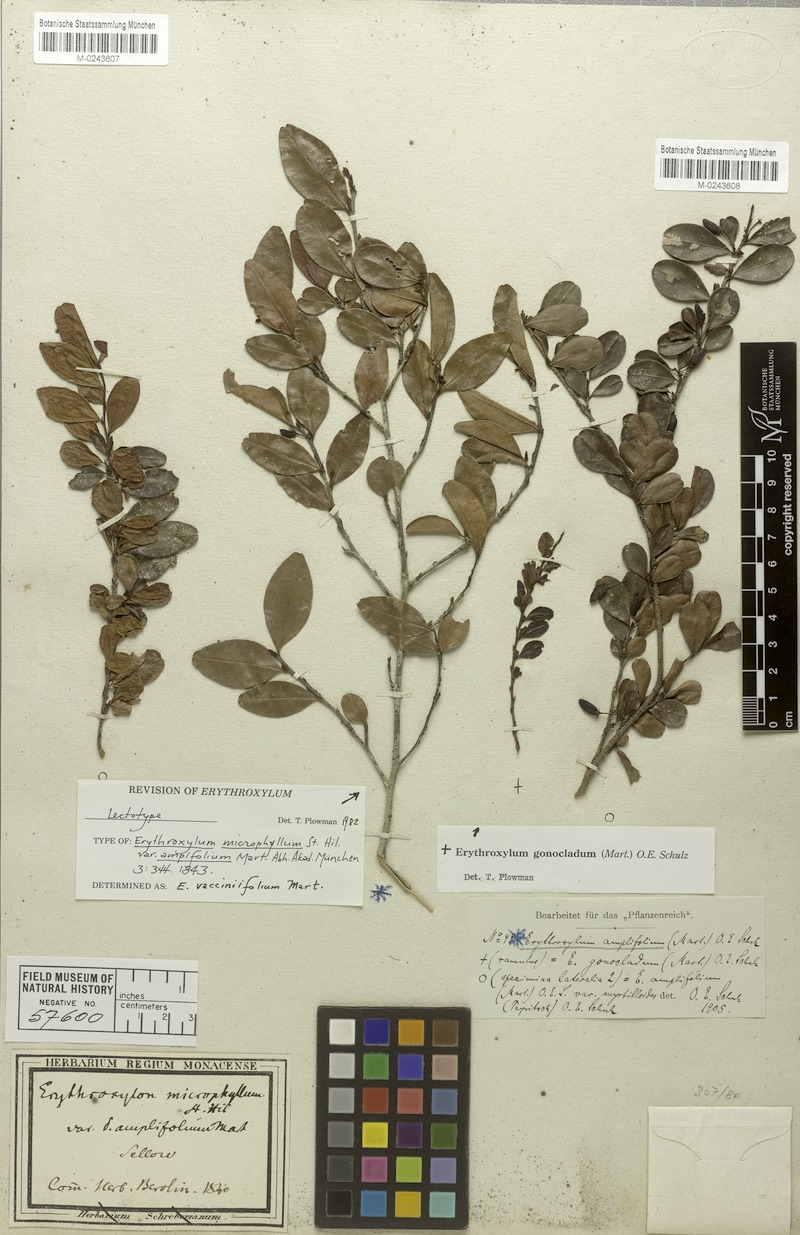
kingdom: Plantae
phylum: Tracheophyta
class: Magnoliopsida
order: Malpighiales
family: Erythroxylaceae
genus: Erythroxylum
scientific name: Erythroxylum gonoclados
